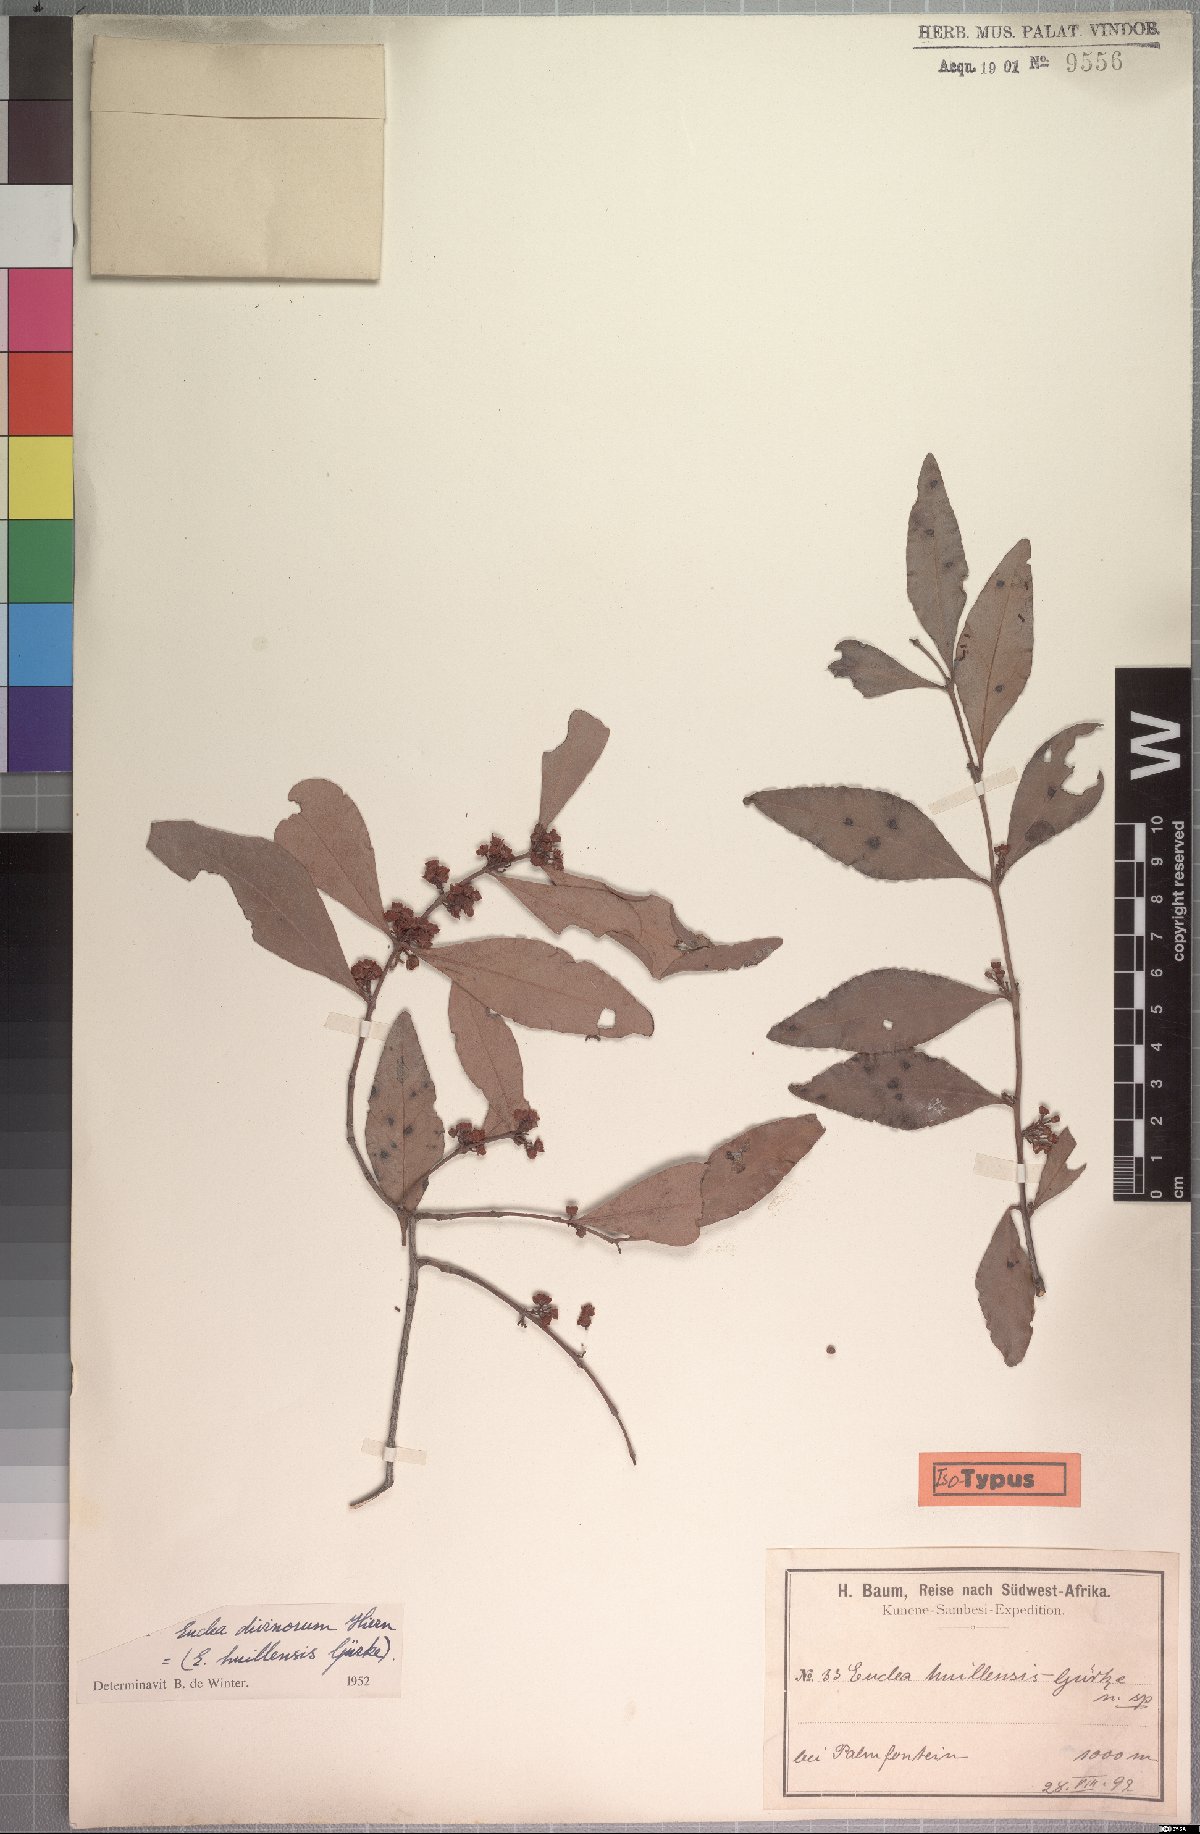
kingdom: Plantae
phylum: Tracheophyta
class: Magnoliopsida
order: Ericales
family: Ebenaceae
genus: Euclea
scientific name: Euclea divinorum
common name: Diamond-leaved euclea
